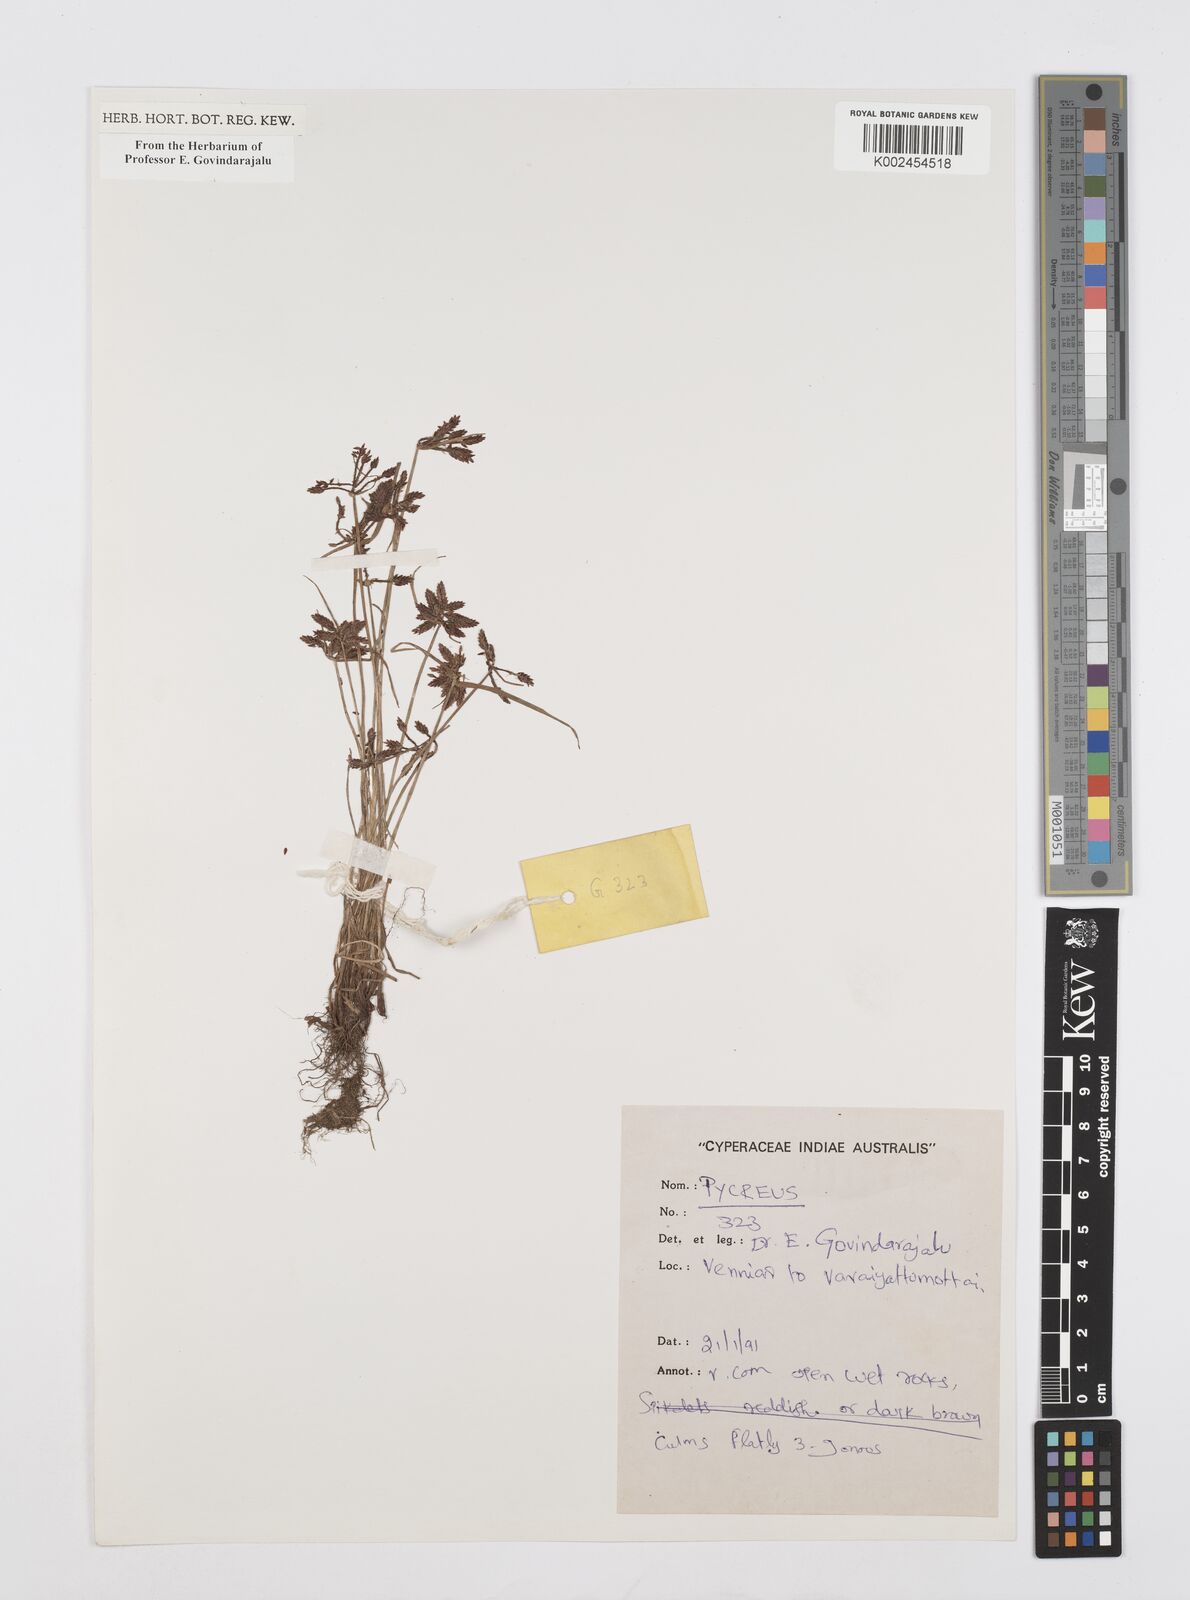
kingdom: Plantae
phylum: Tracheophyta
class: Liliopsida
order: Poales
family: Cyperaceae
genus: Cyperus
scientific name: Cyperus
